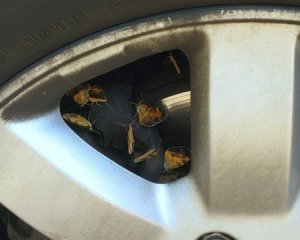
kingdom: Animalia
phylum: Arthropoda
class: Insecta
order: Lepidoptera
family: Nymphalidae
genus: Phyciodes
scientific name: Phyciodes tharos
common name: Pearl Crescent
